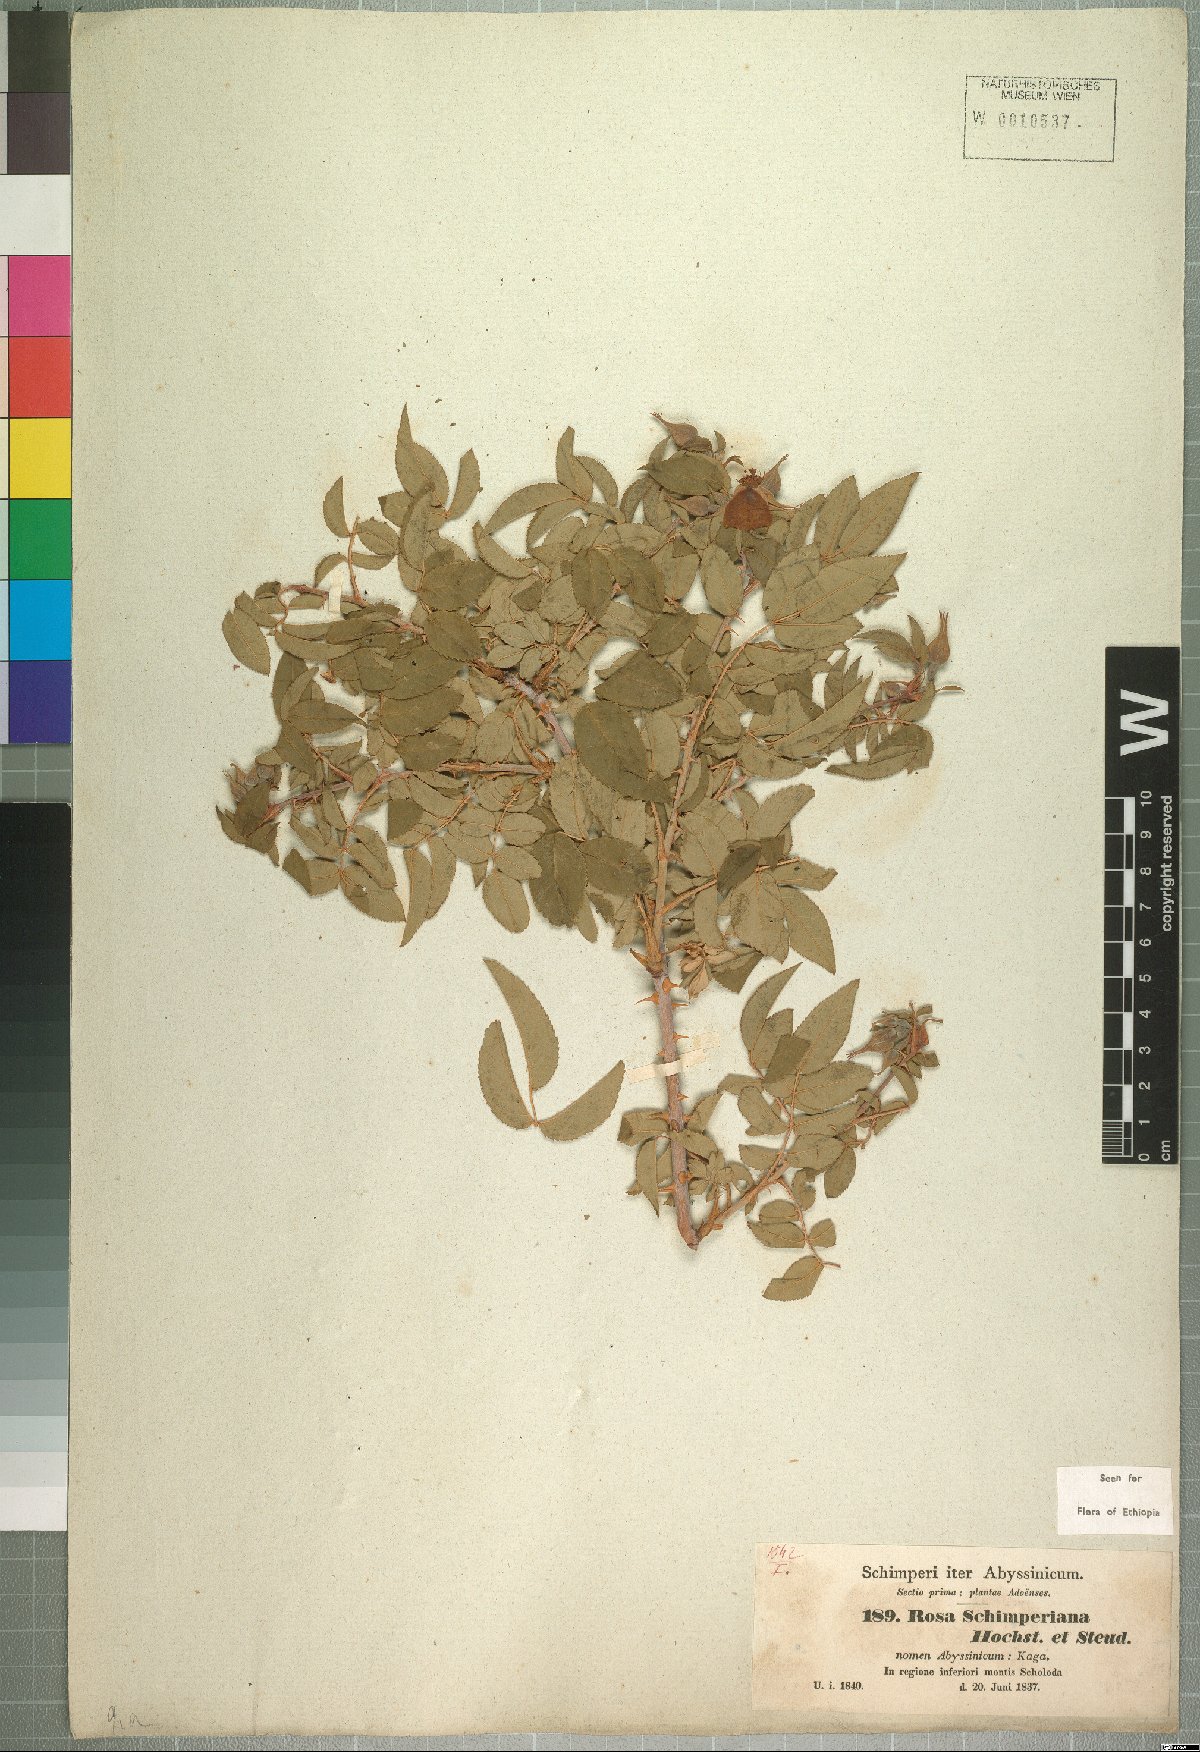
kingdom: Plantae
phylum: Tracheophyta
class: Magnoliopsida
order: Rosales
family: Rosaceae
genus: Rosa
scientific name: Rosa abyssinica
